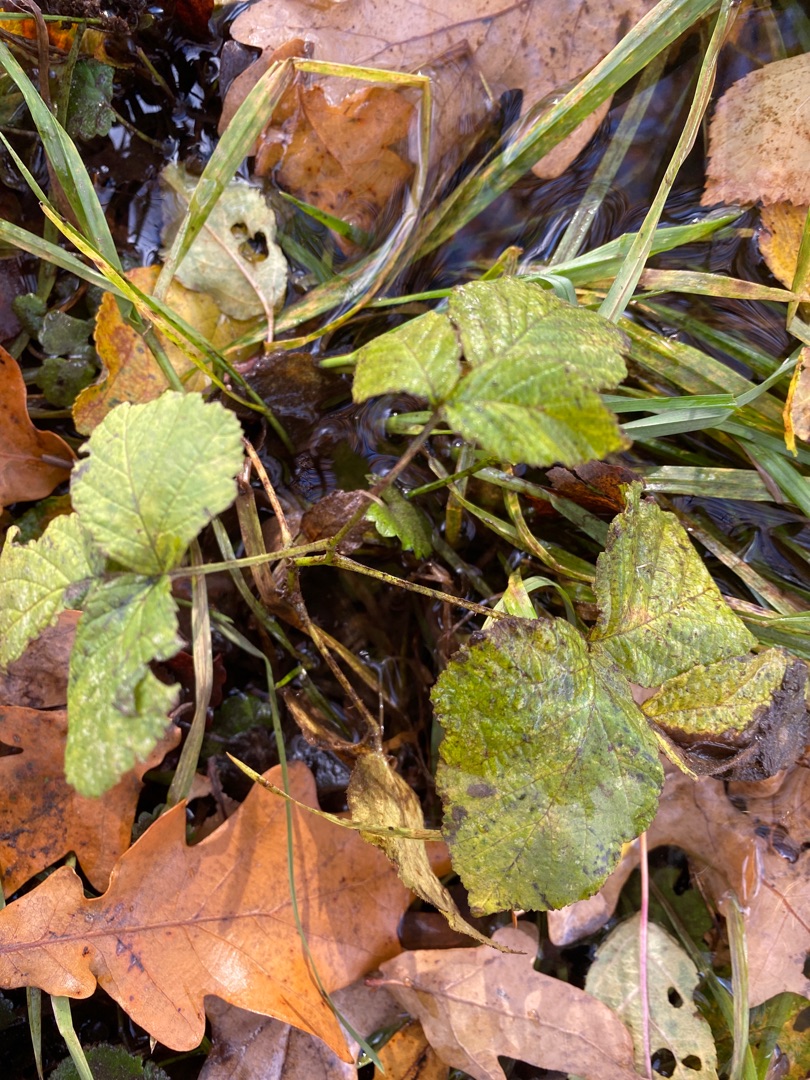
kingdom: Plantae
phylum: Tracheophyta
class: Magnoliopsida
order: Rosales
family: Rosaceae
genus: Rubus
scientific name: Rubus
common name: Klyngerslægten
